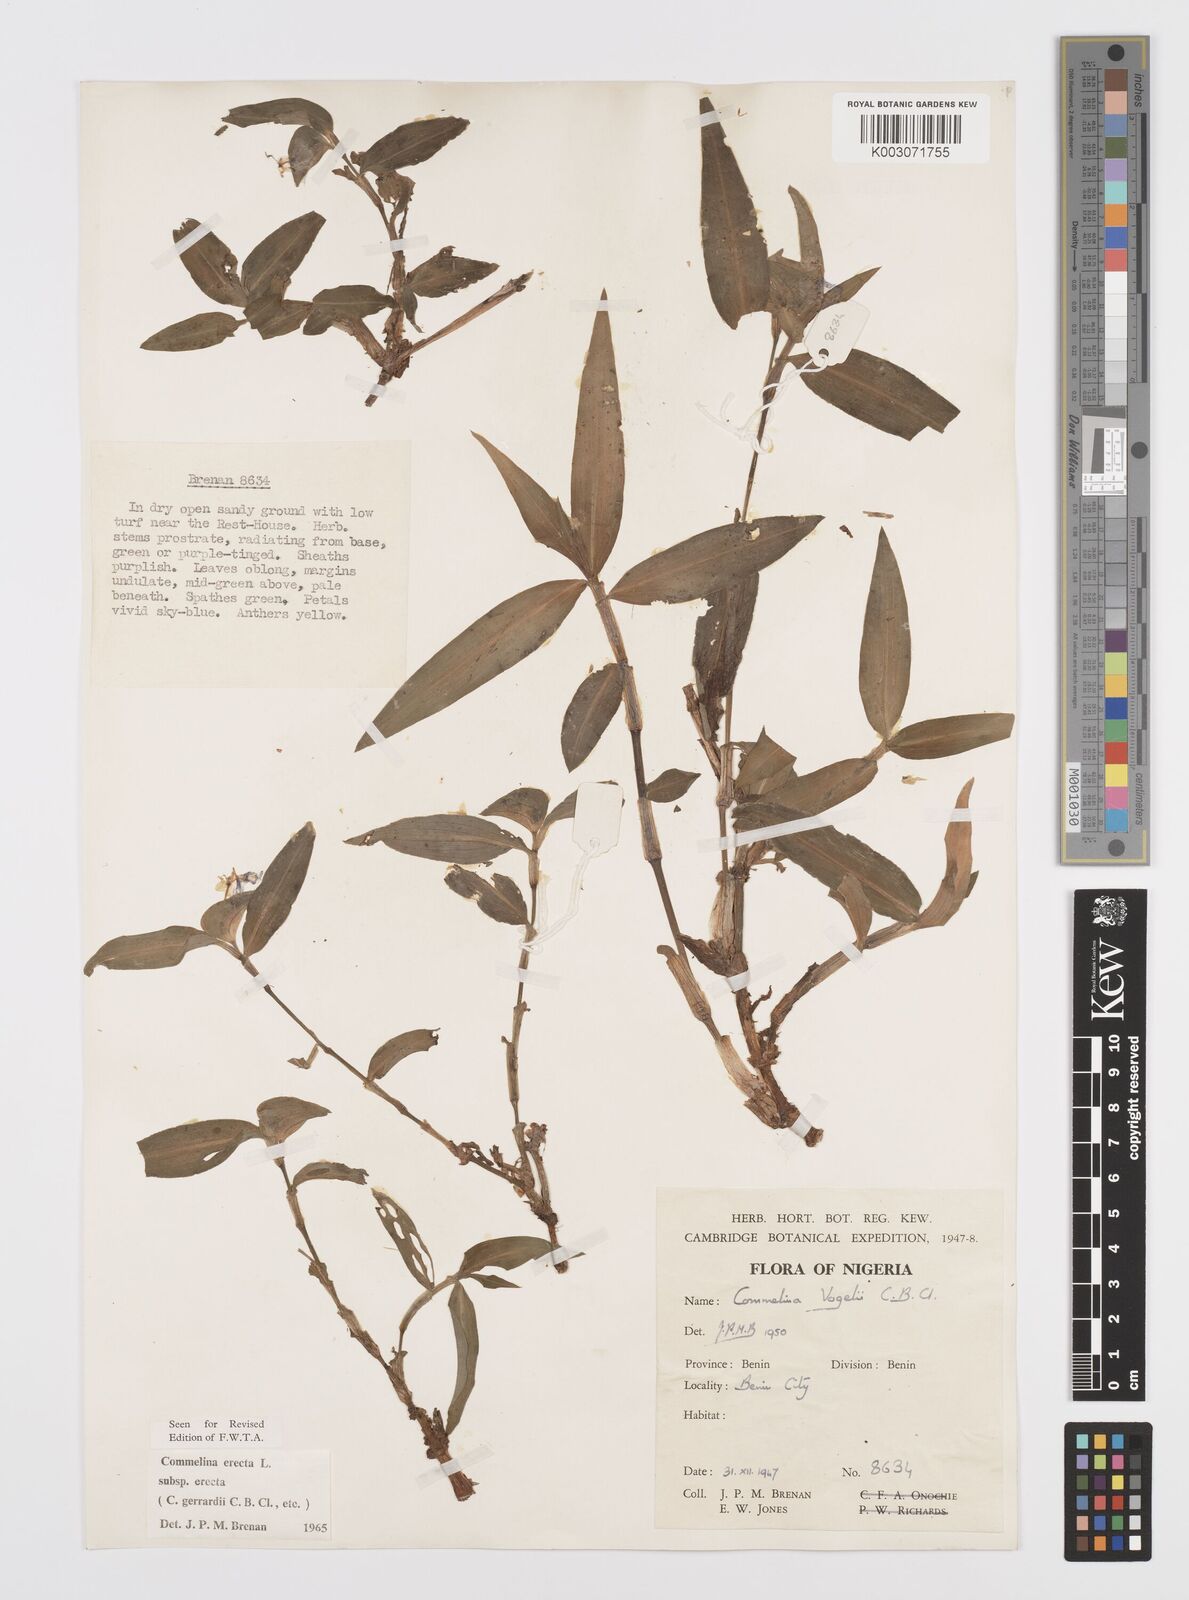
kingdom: Plantae
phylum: Tracheophyta
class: Liliopsida
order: Commelinales
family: Commelinaceae
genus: Commelina
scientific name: Commelina erecta
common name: Blousel blommetjie
